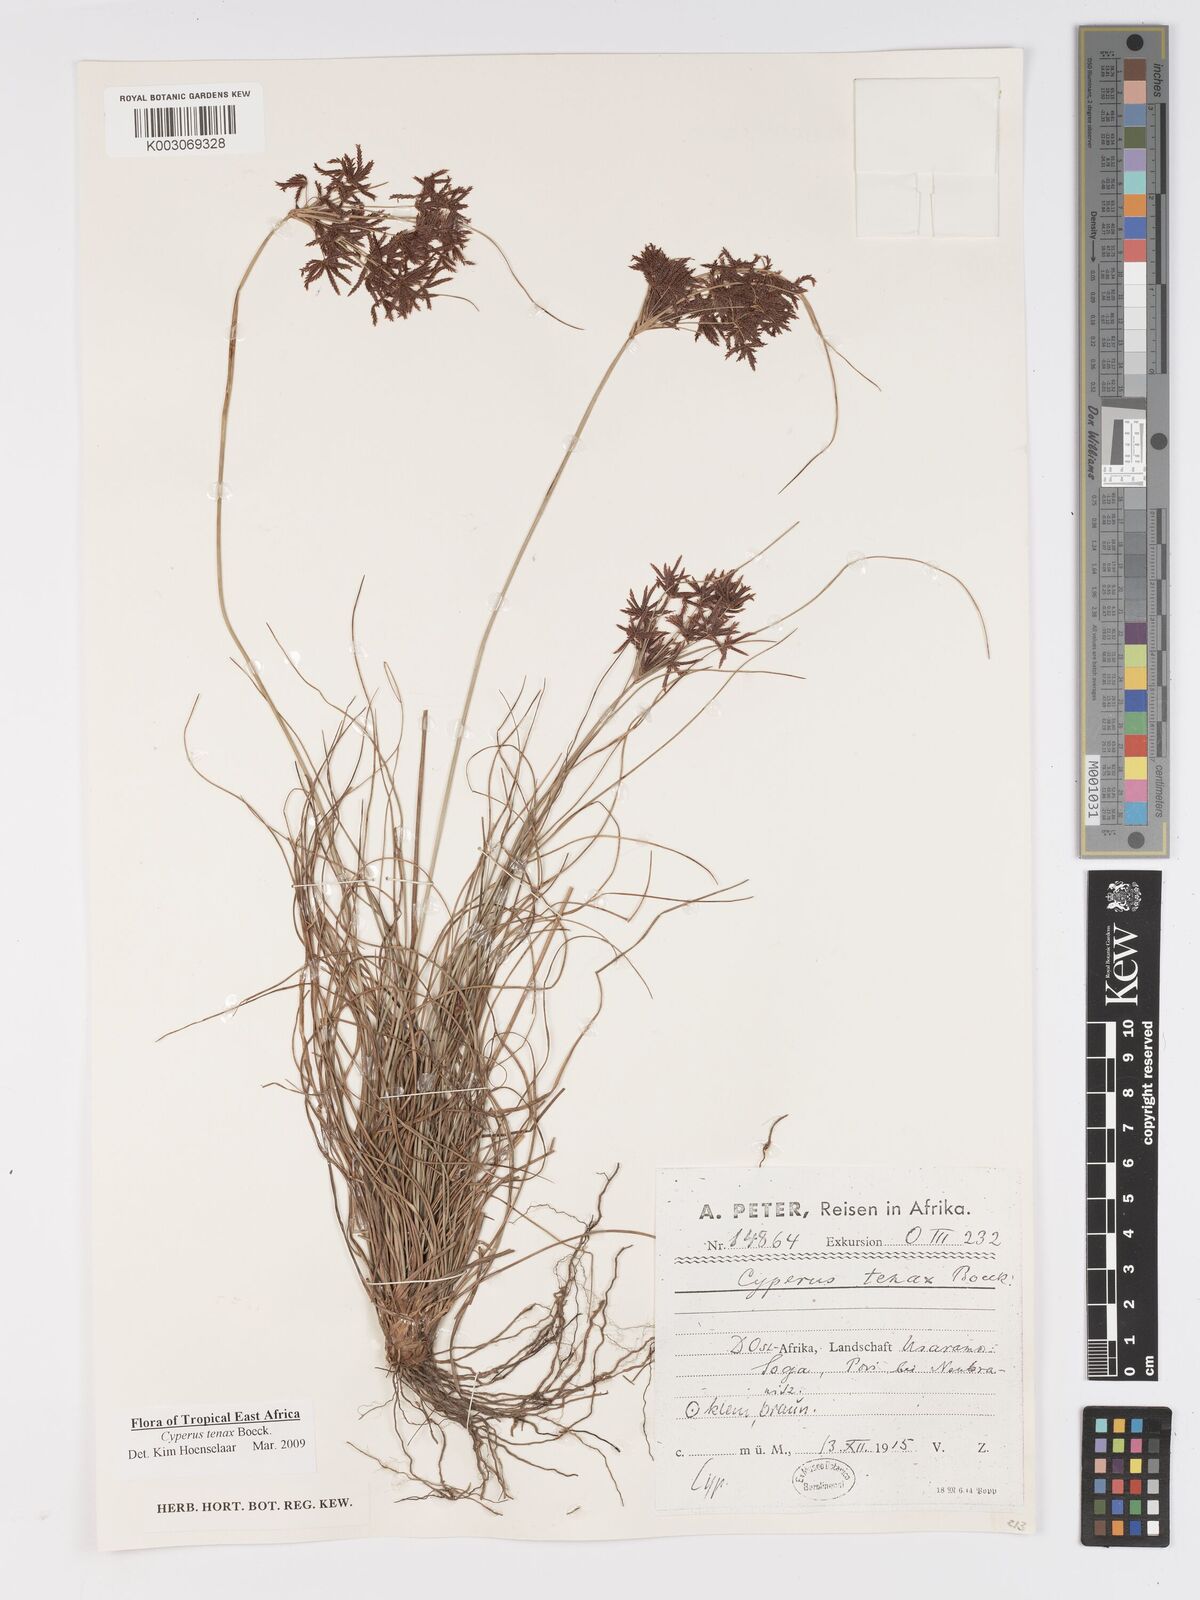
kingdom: Plantae
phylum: Tracheophyta
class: Liliopsida
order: Poales
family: Cyperaceae
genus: Cyperus
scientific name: Cyperus tenax
